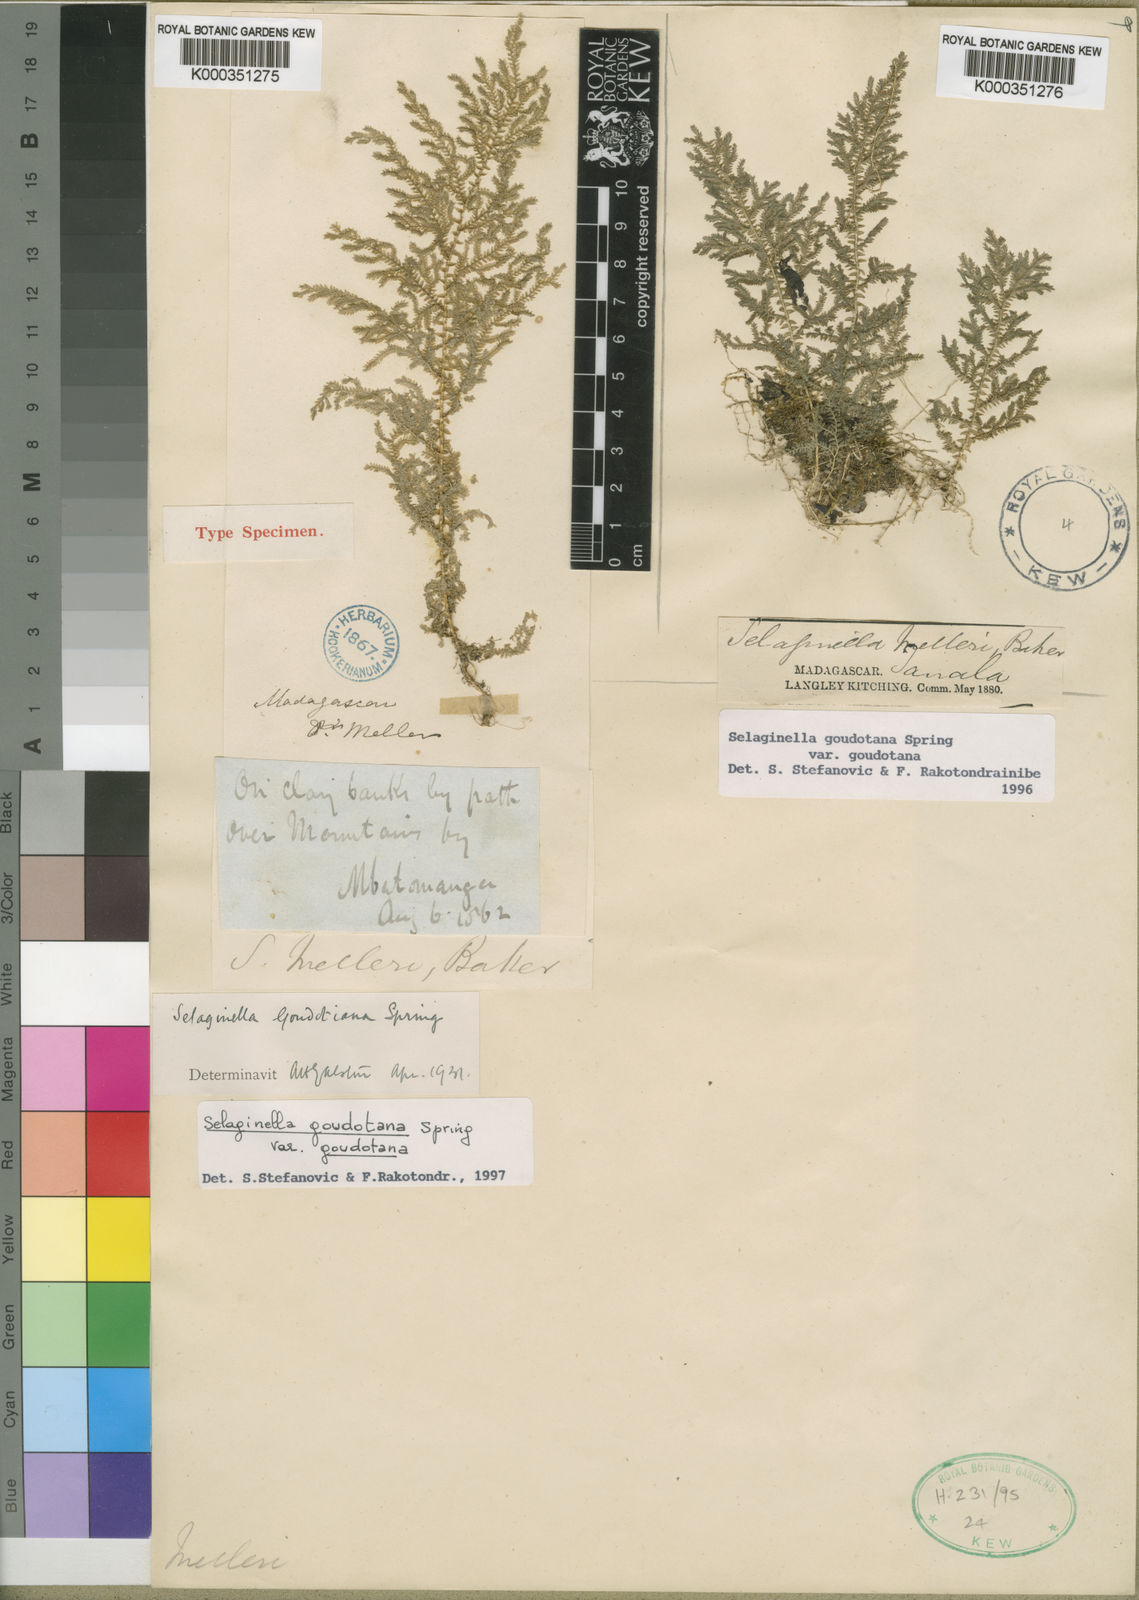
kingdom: Plantae
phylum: Tracheophyta
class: Lycopodiopsida
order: Selaginellales
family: Selaginellaceae
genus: Selaginella
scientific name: Selaginella goudotiana
